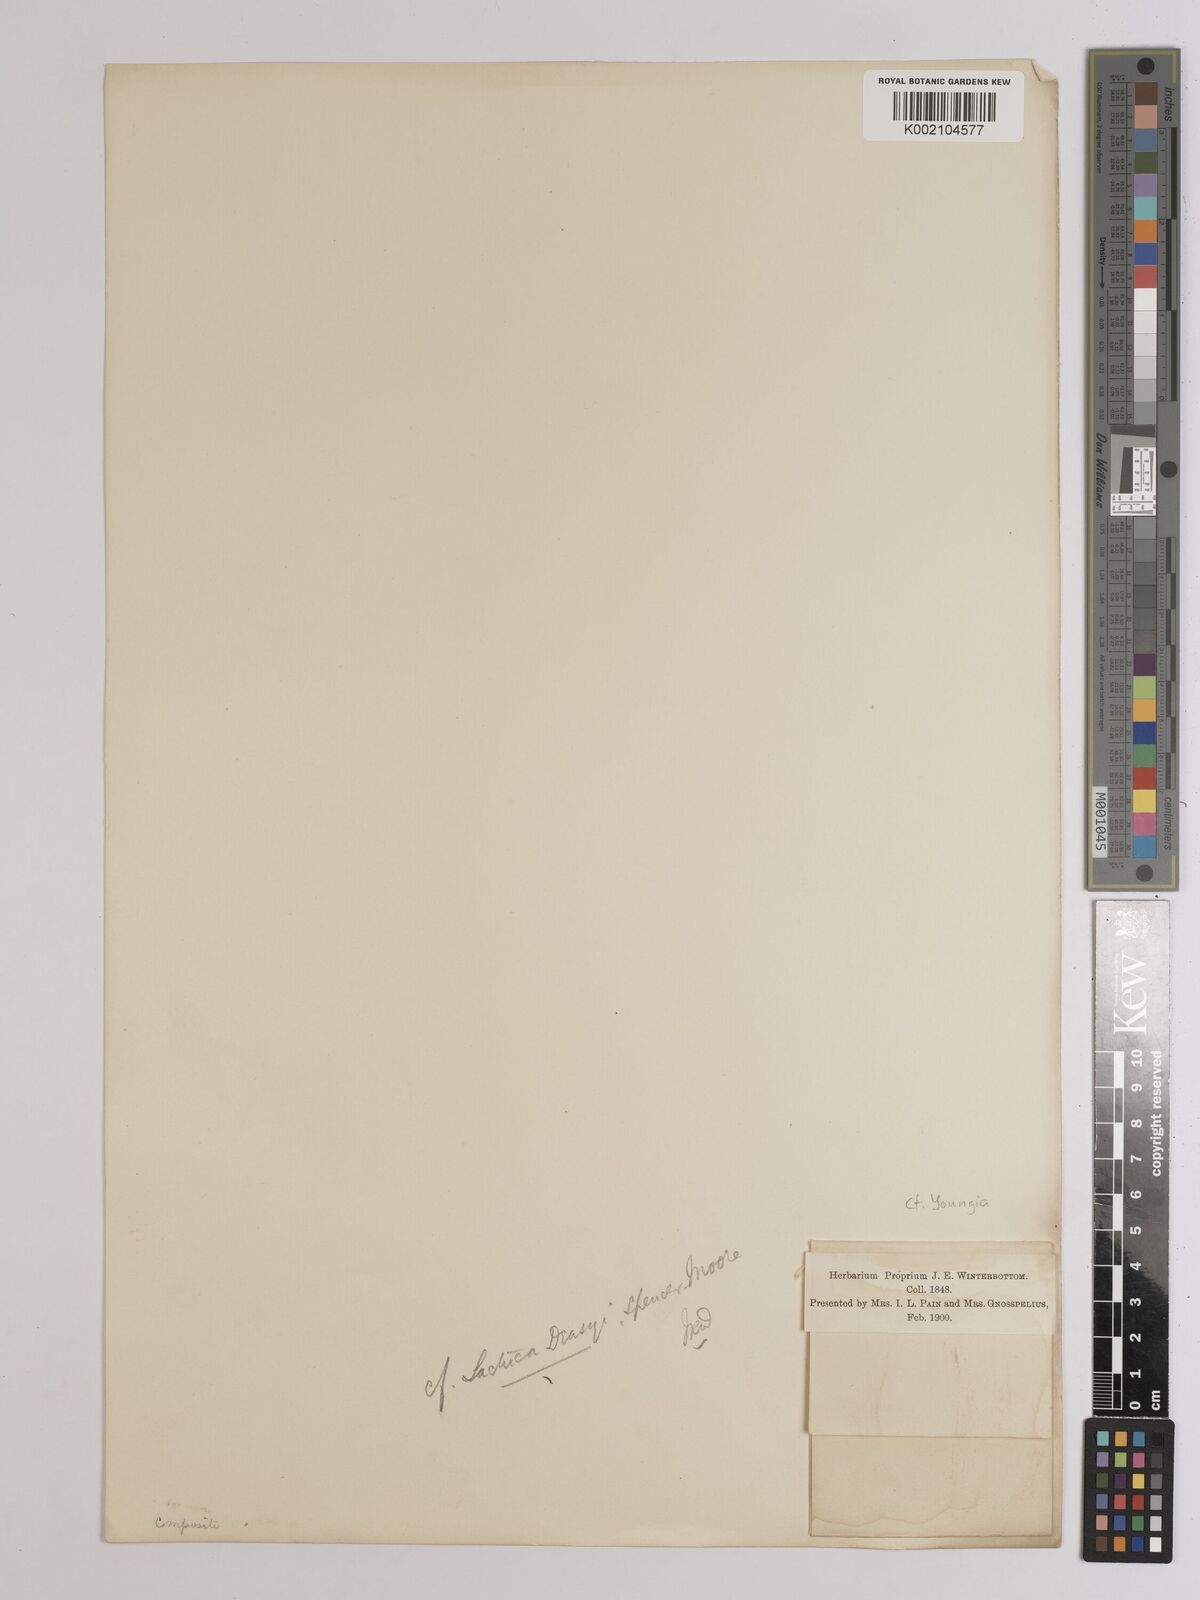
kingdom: Plantae
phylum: Tracheophyta
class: Magnoliopsida
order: Asterales
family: Asteraceae
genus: Lactuca
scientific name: Lactuca
